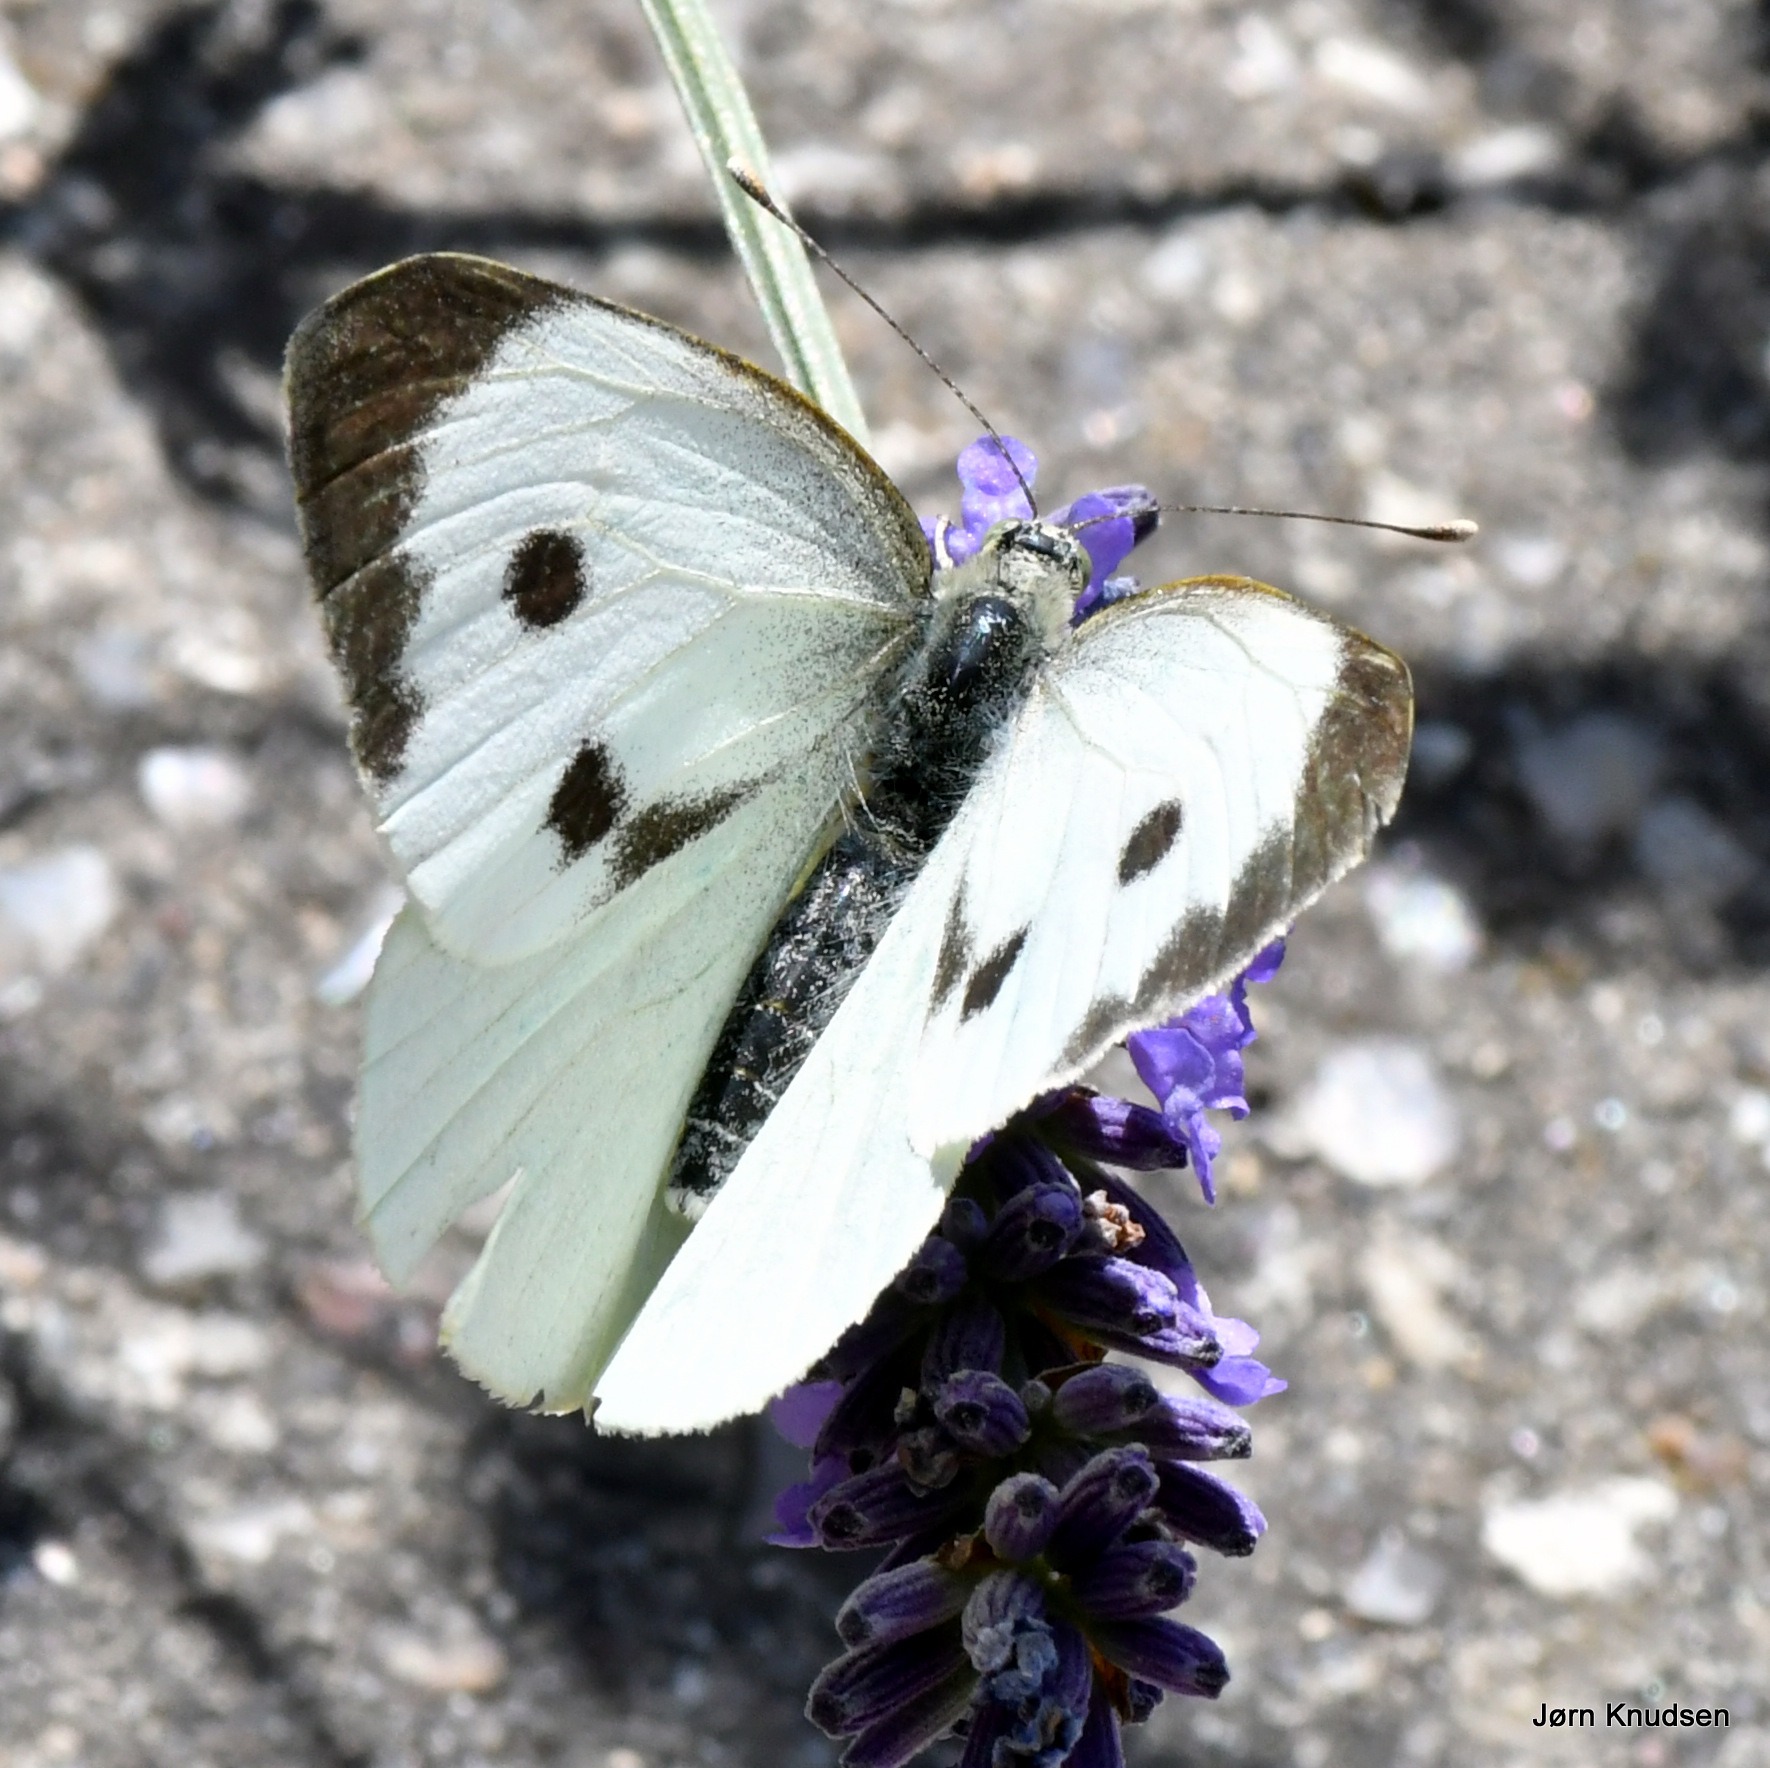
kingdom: Animalia
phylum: Arthropoda
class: Insecta
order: Lepidoptera
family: Pieridae
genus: Pieris
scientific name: Pieris brassicae
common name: Stor kålsommerfugl
